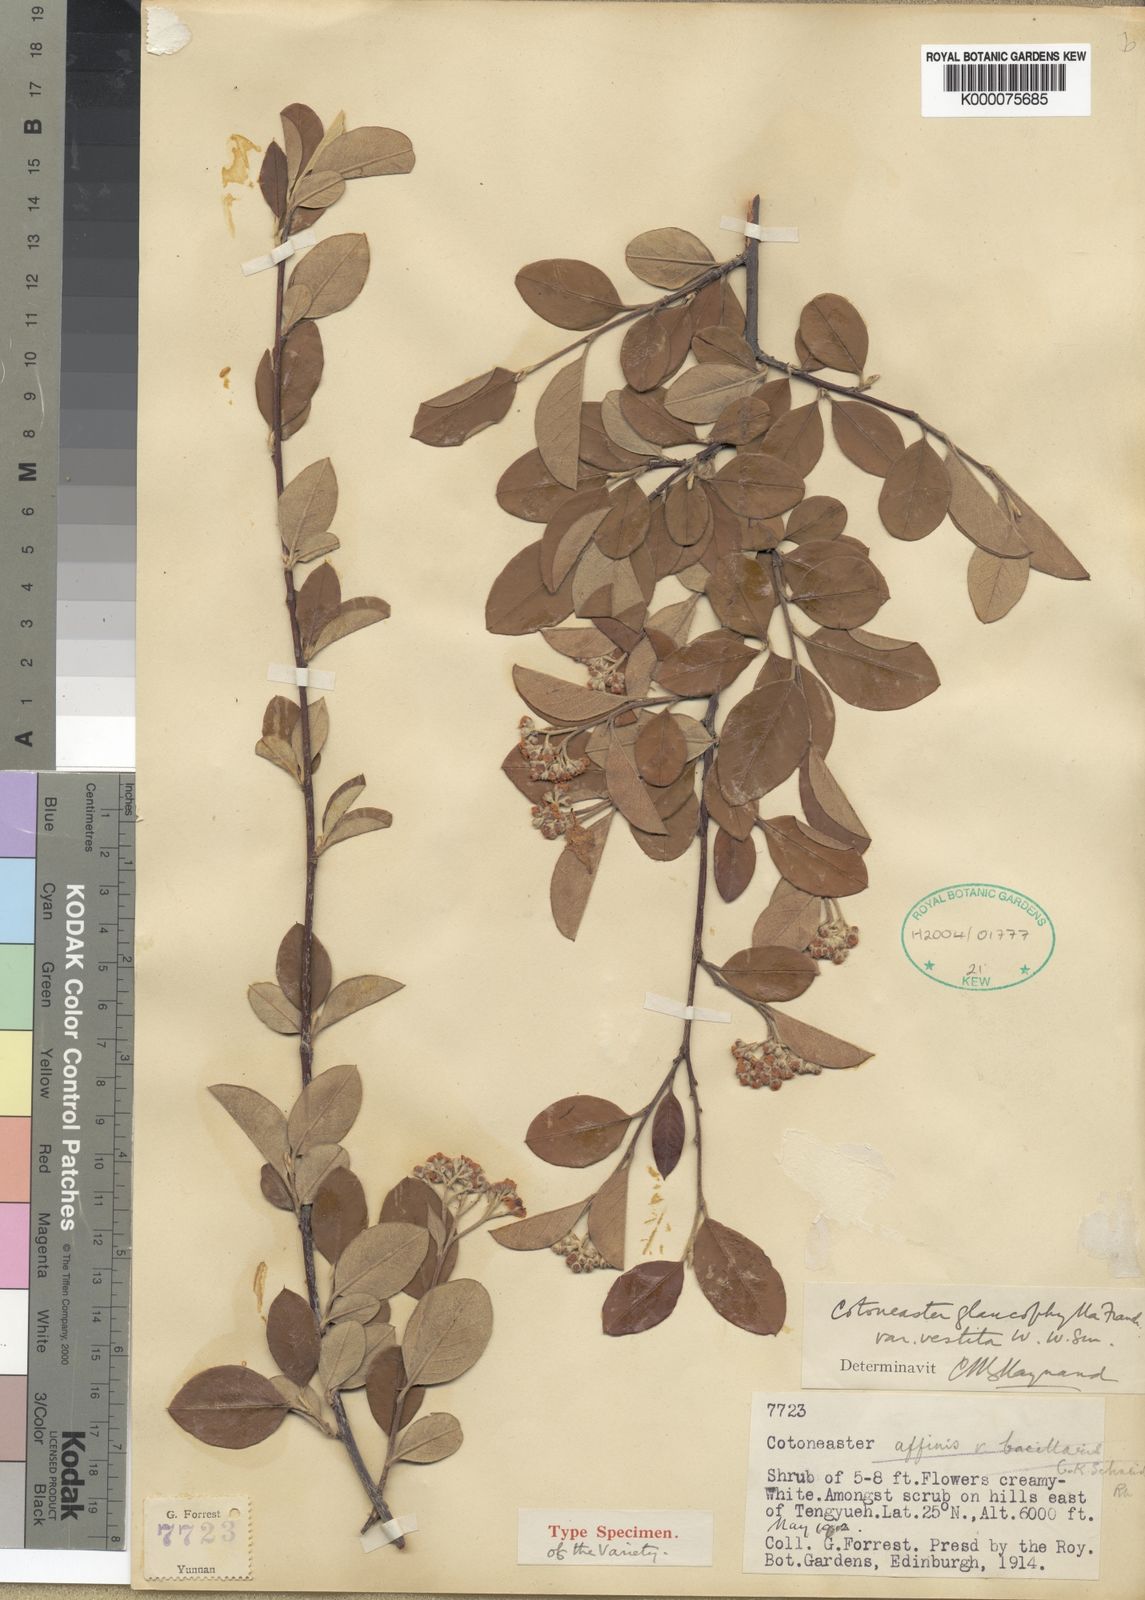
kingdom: Plantae
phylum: Tracheophyta
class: Magnoliopsida
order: Rosales
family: Rosaceae
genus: Cotoneaster
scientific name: Cotoneaster glaucophyllus
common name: Glaucous cotoneaster
